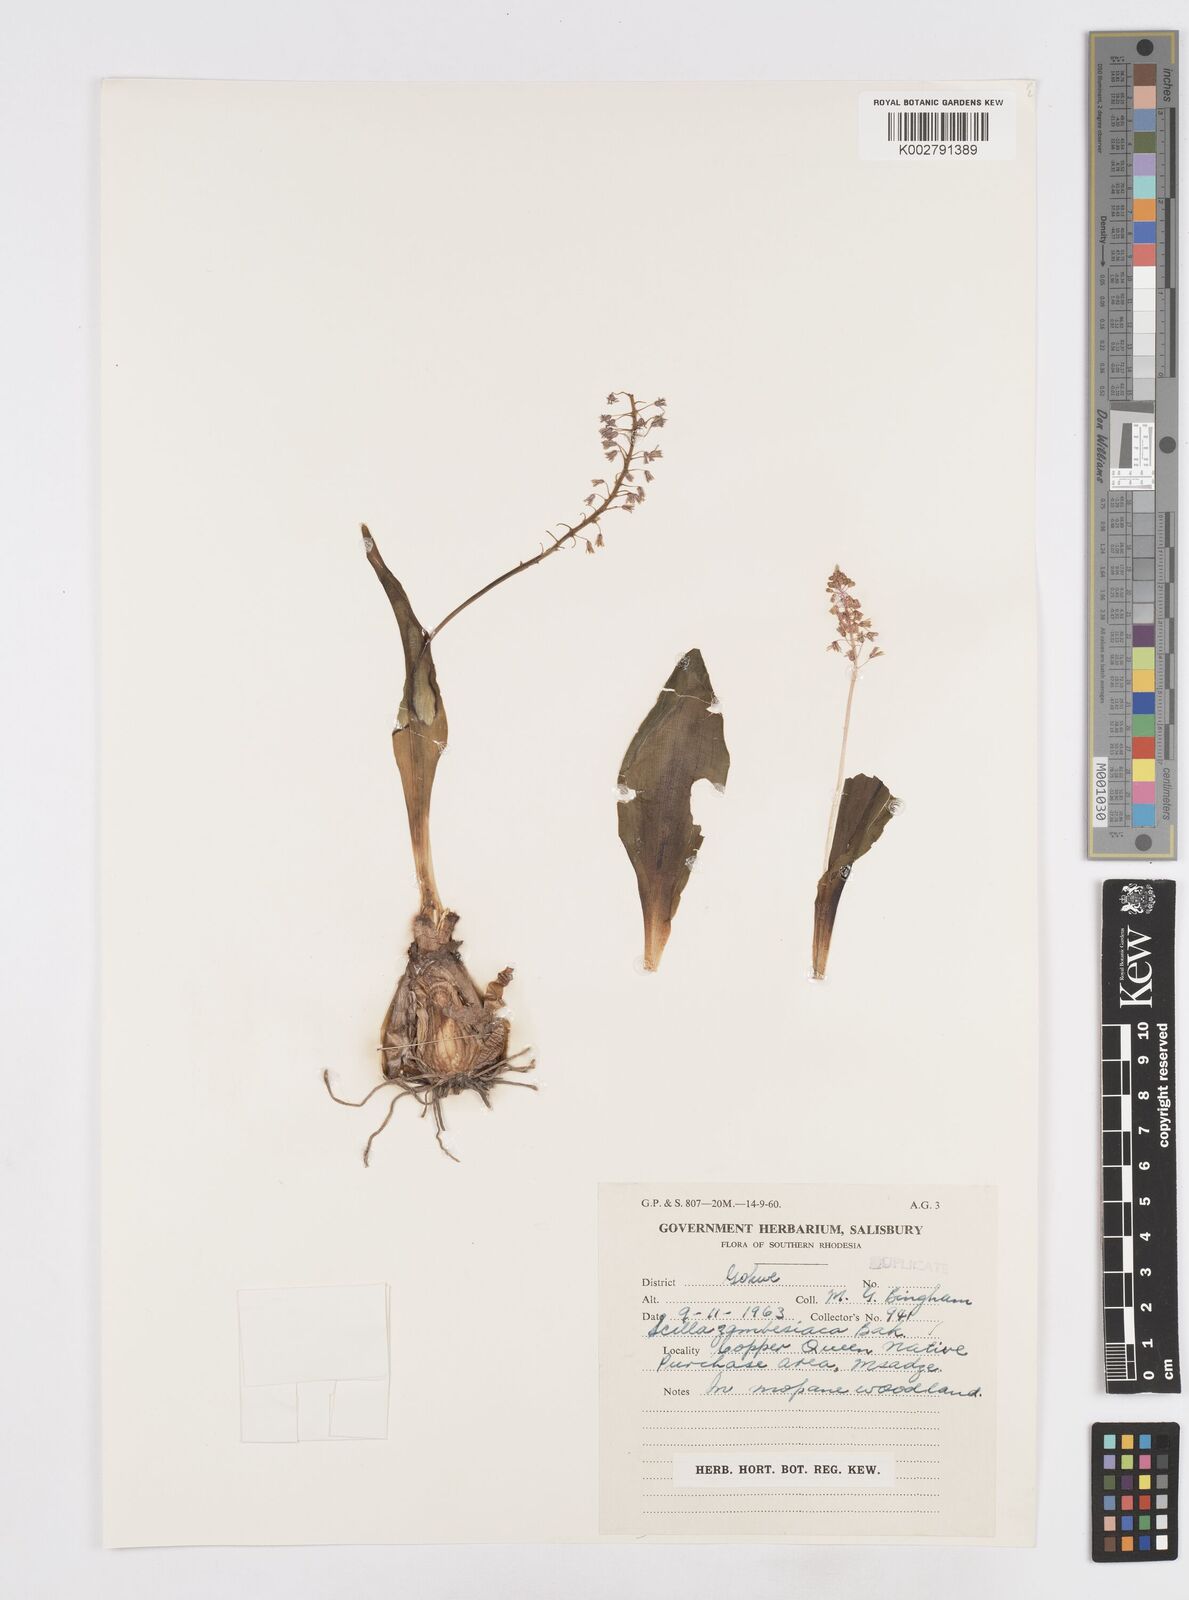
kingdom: Plantae
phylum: Tracheophyta
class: Liliopsida
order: Asparagales
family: Asparagaceae
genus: Ledebouria
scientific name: Ledebouria zambesiaca
